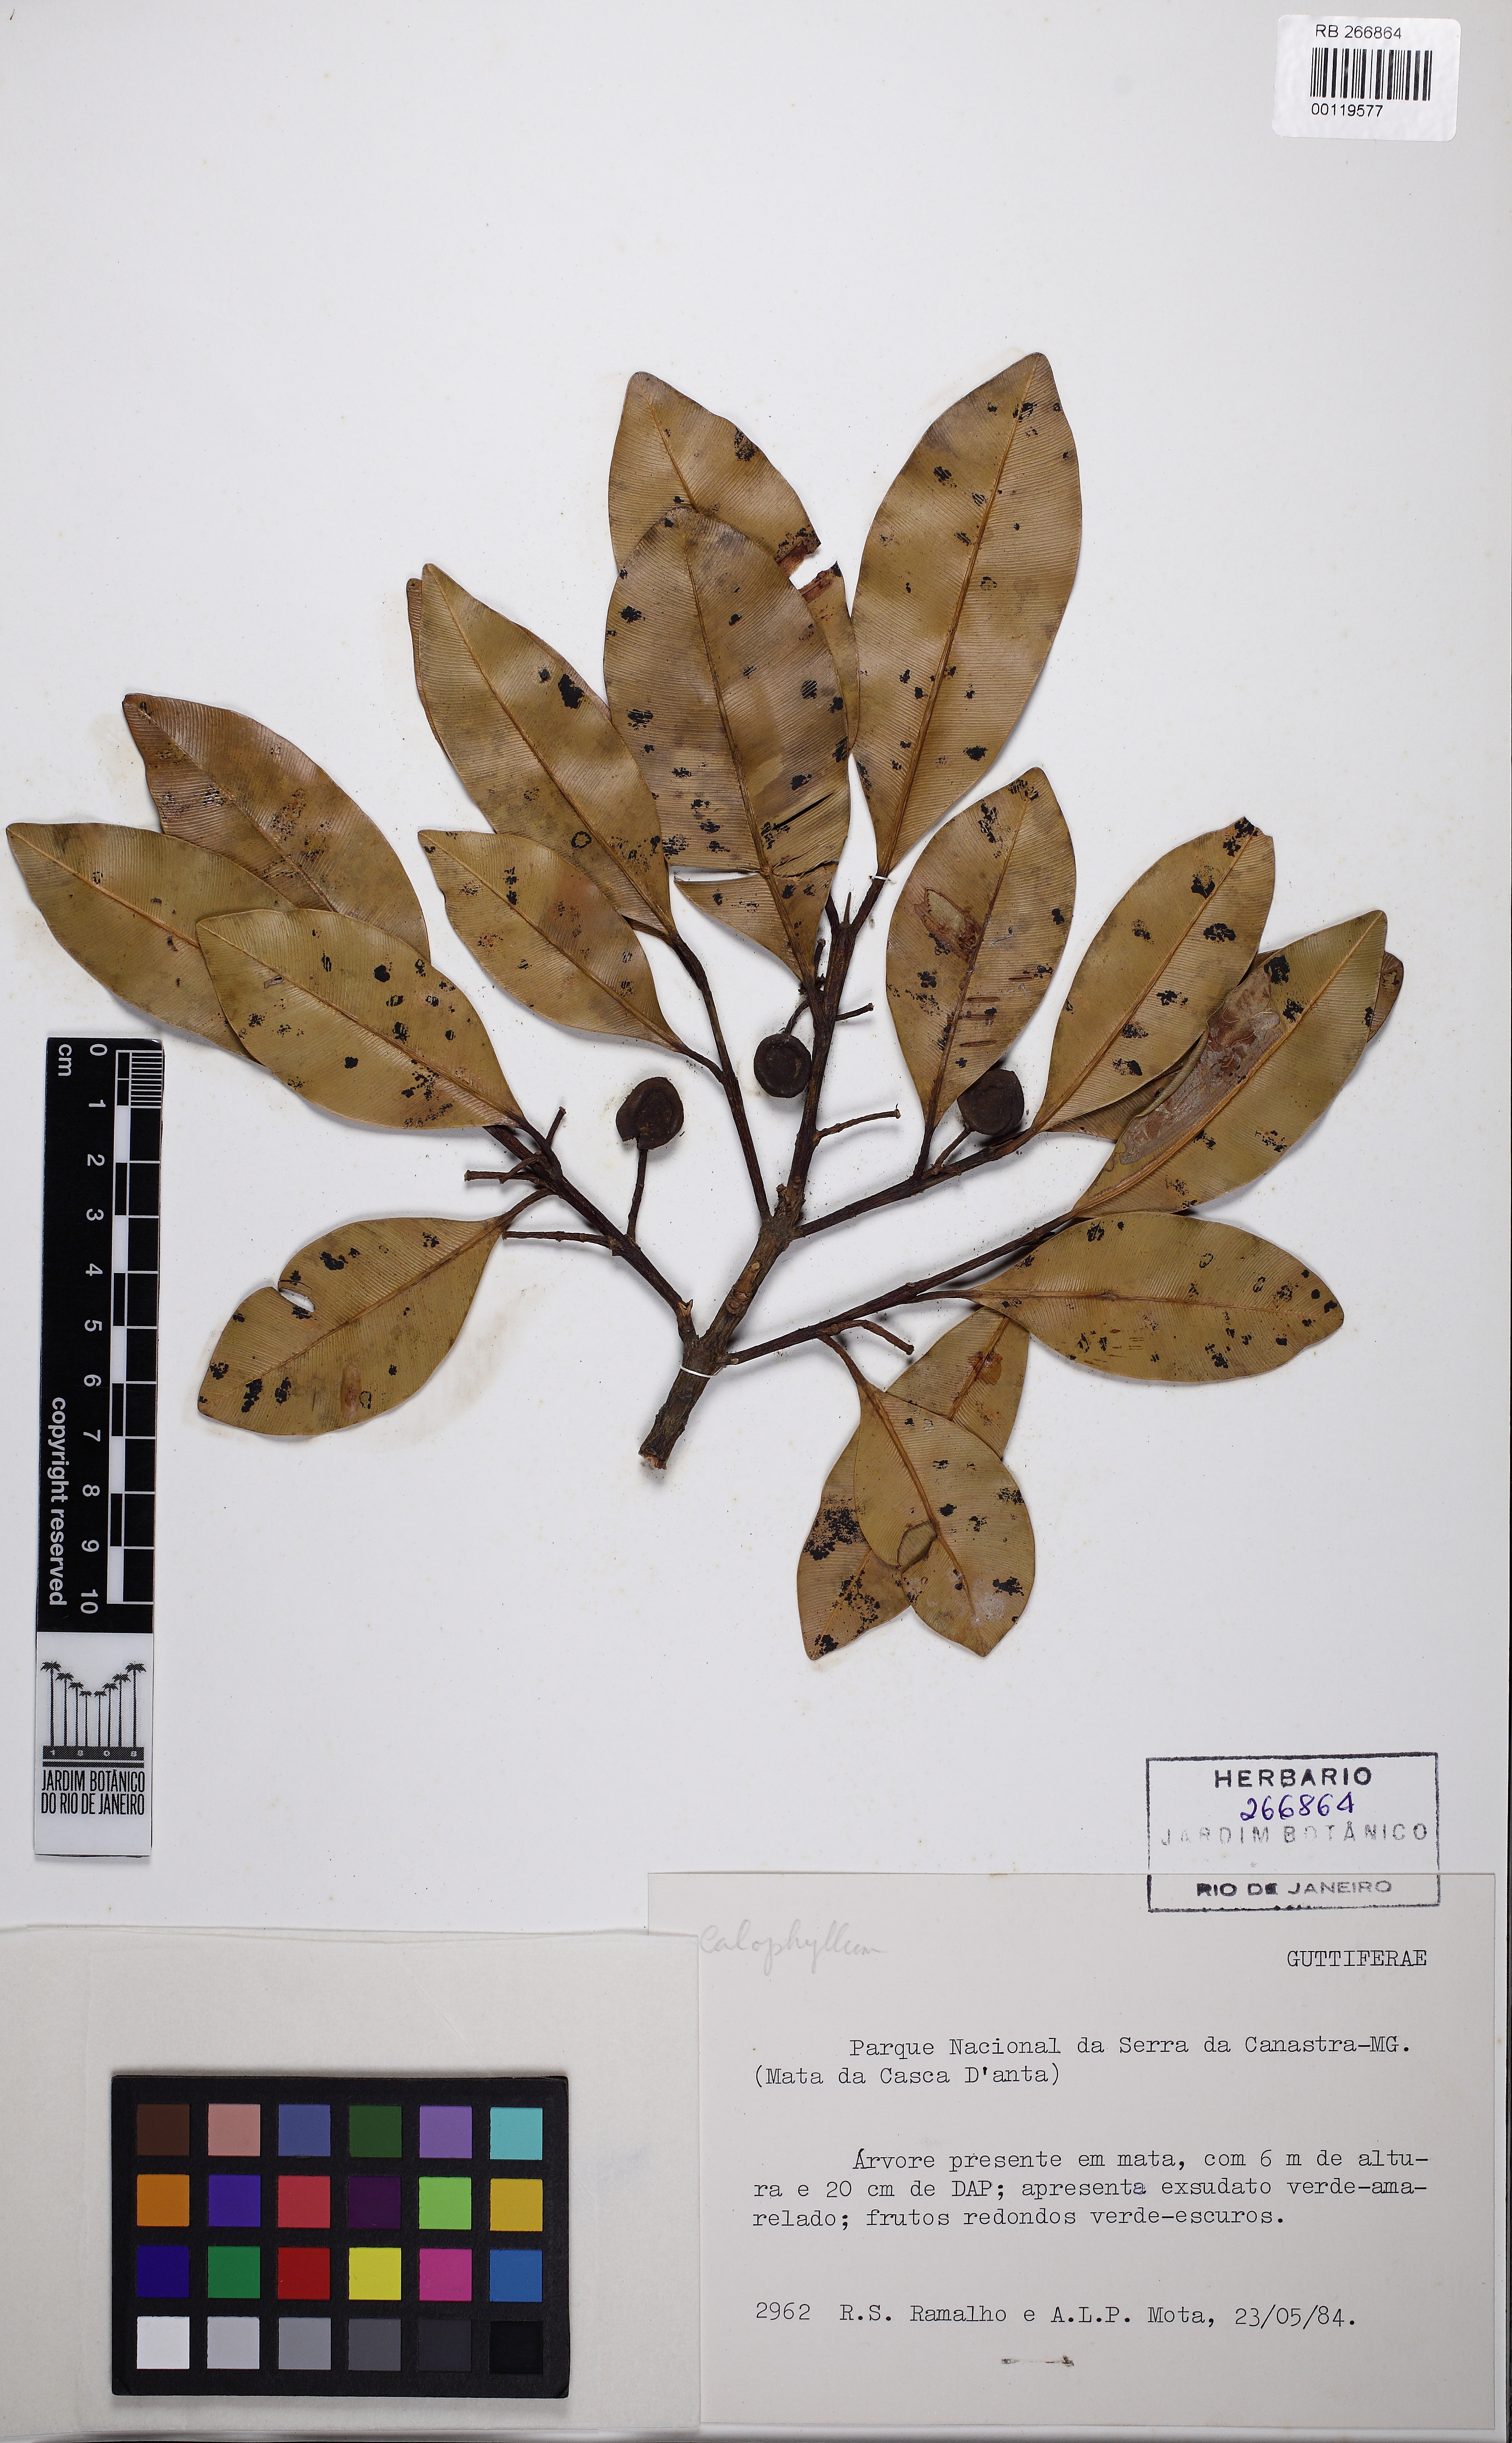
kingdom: Plantae
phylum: Tracheophyta
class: Magnoliopsida
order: Malpighiales
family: Hypericaceae
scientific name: Hypericaceae
